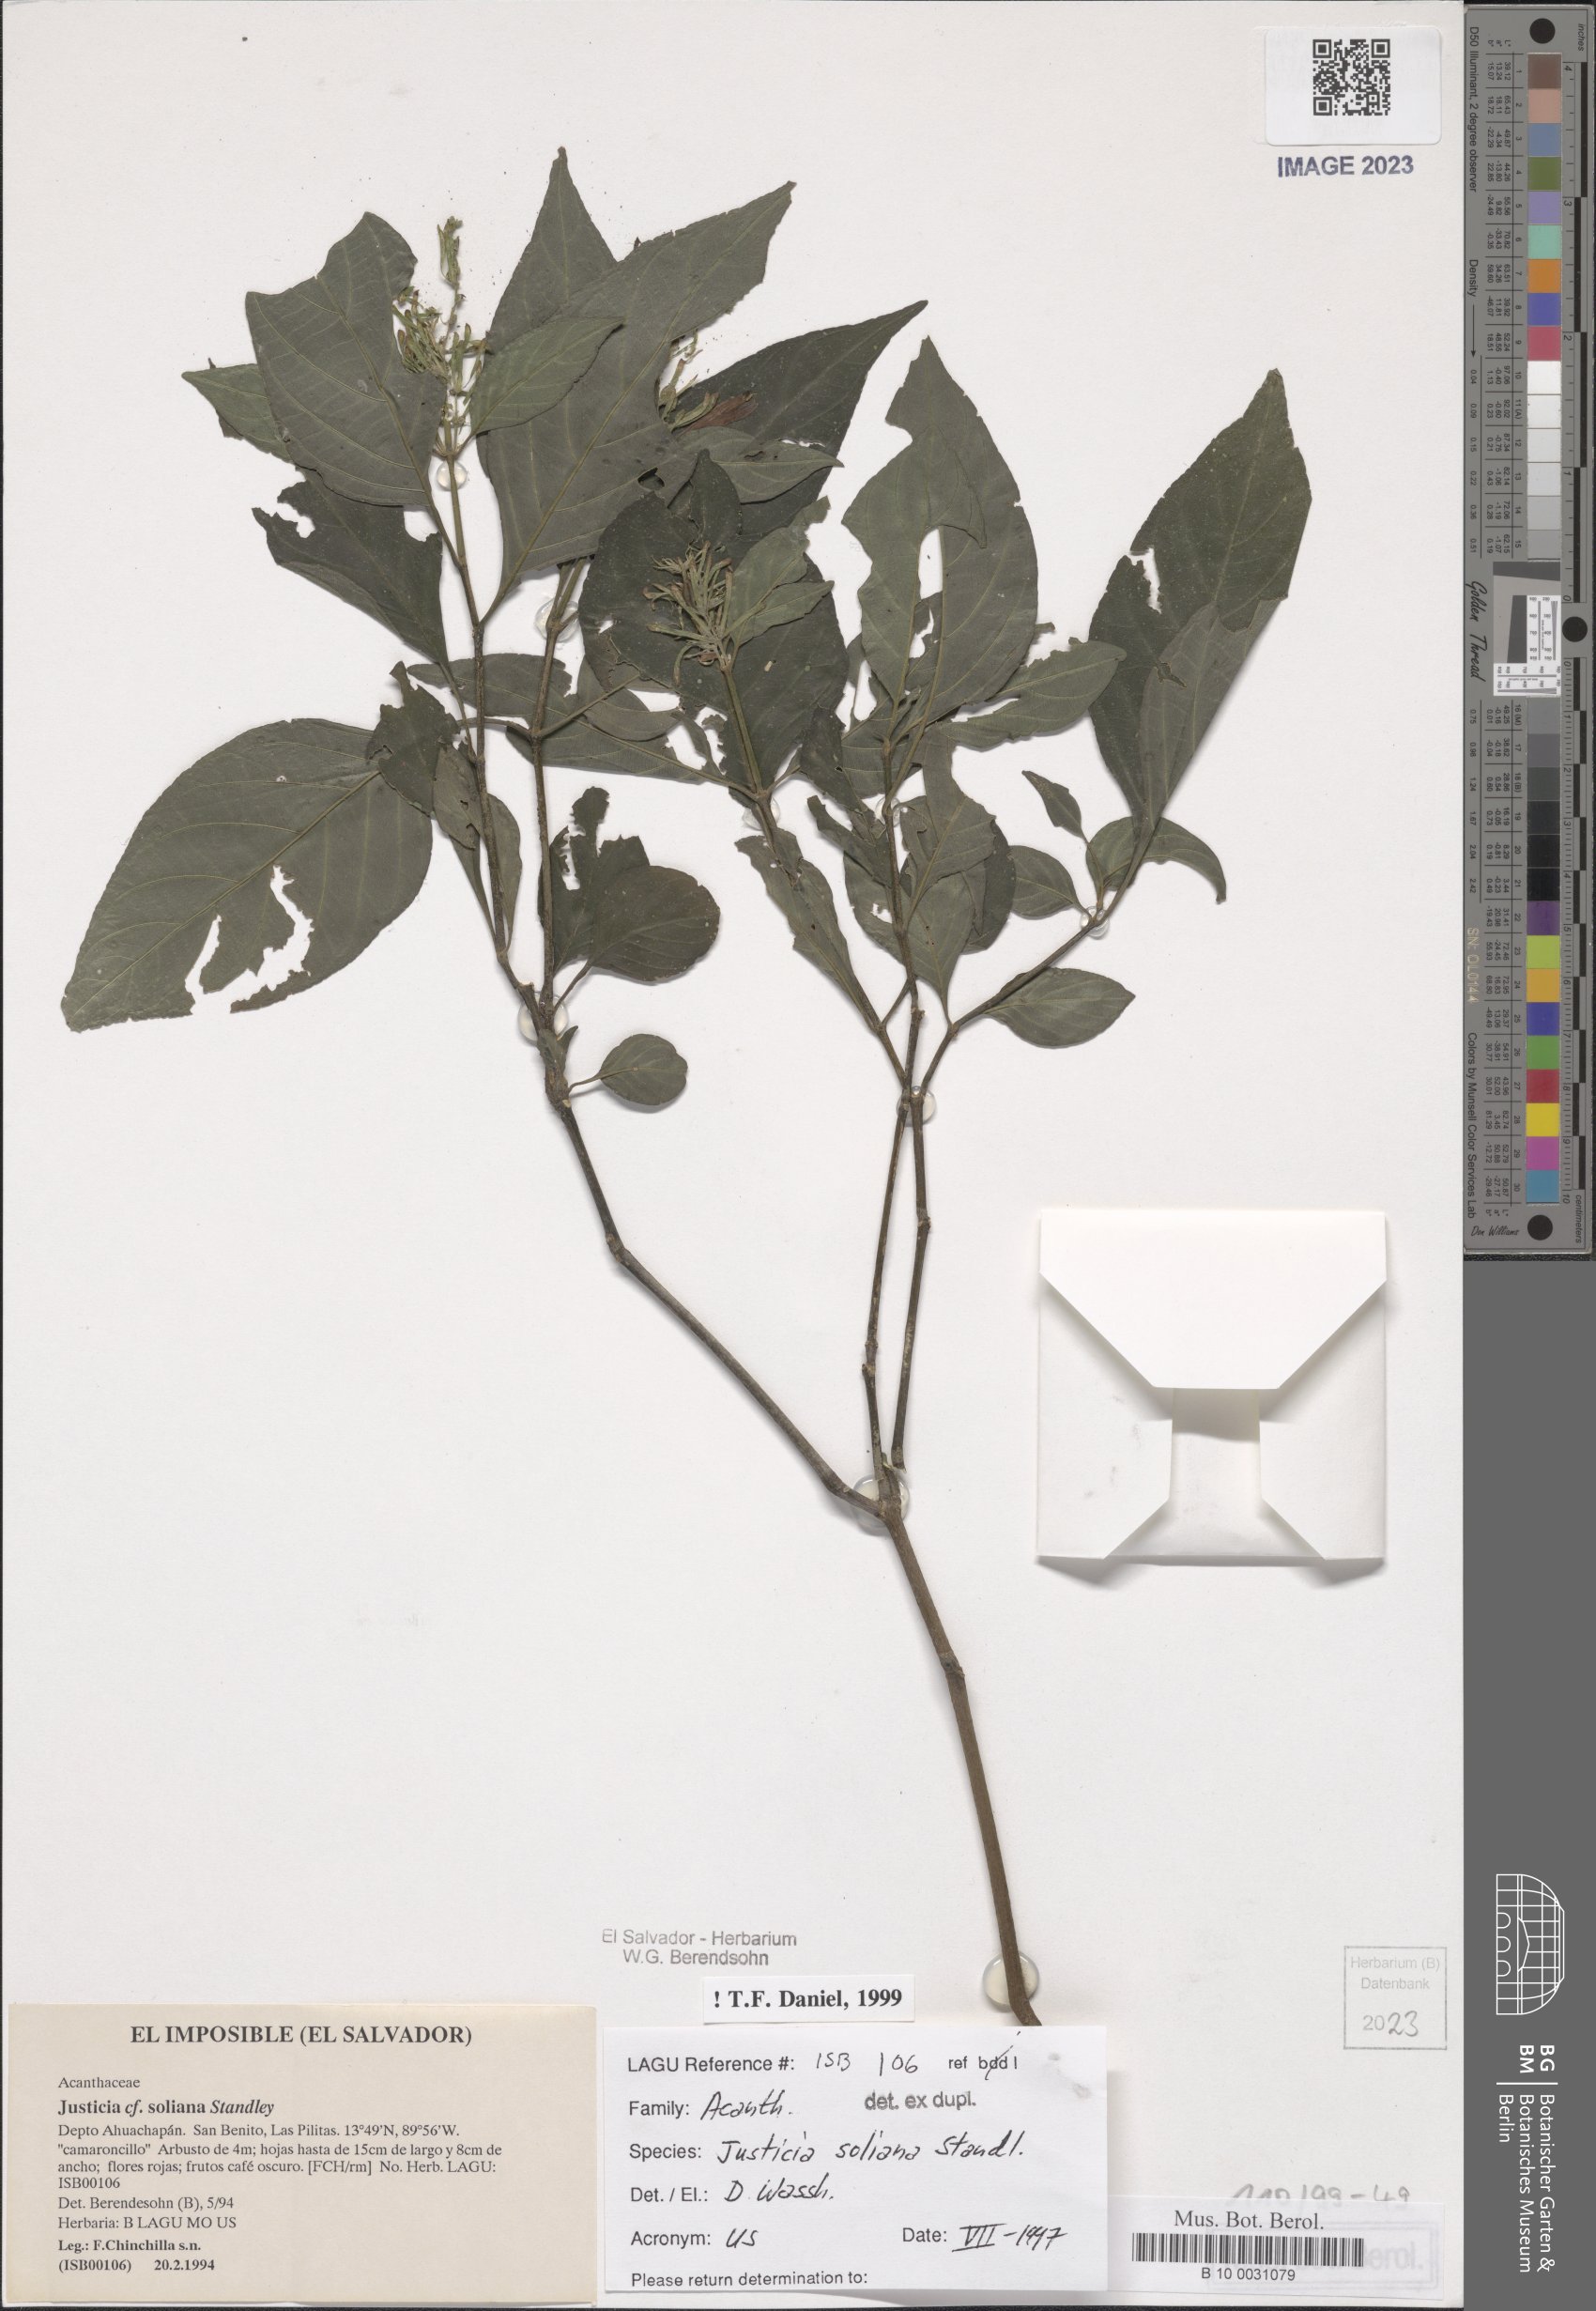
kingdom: Plantae
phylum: Tracheophyta
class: Magnoliopsida
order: Lamiales
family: Acanthaceae
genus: Justicia
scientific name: Justicia soliana
